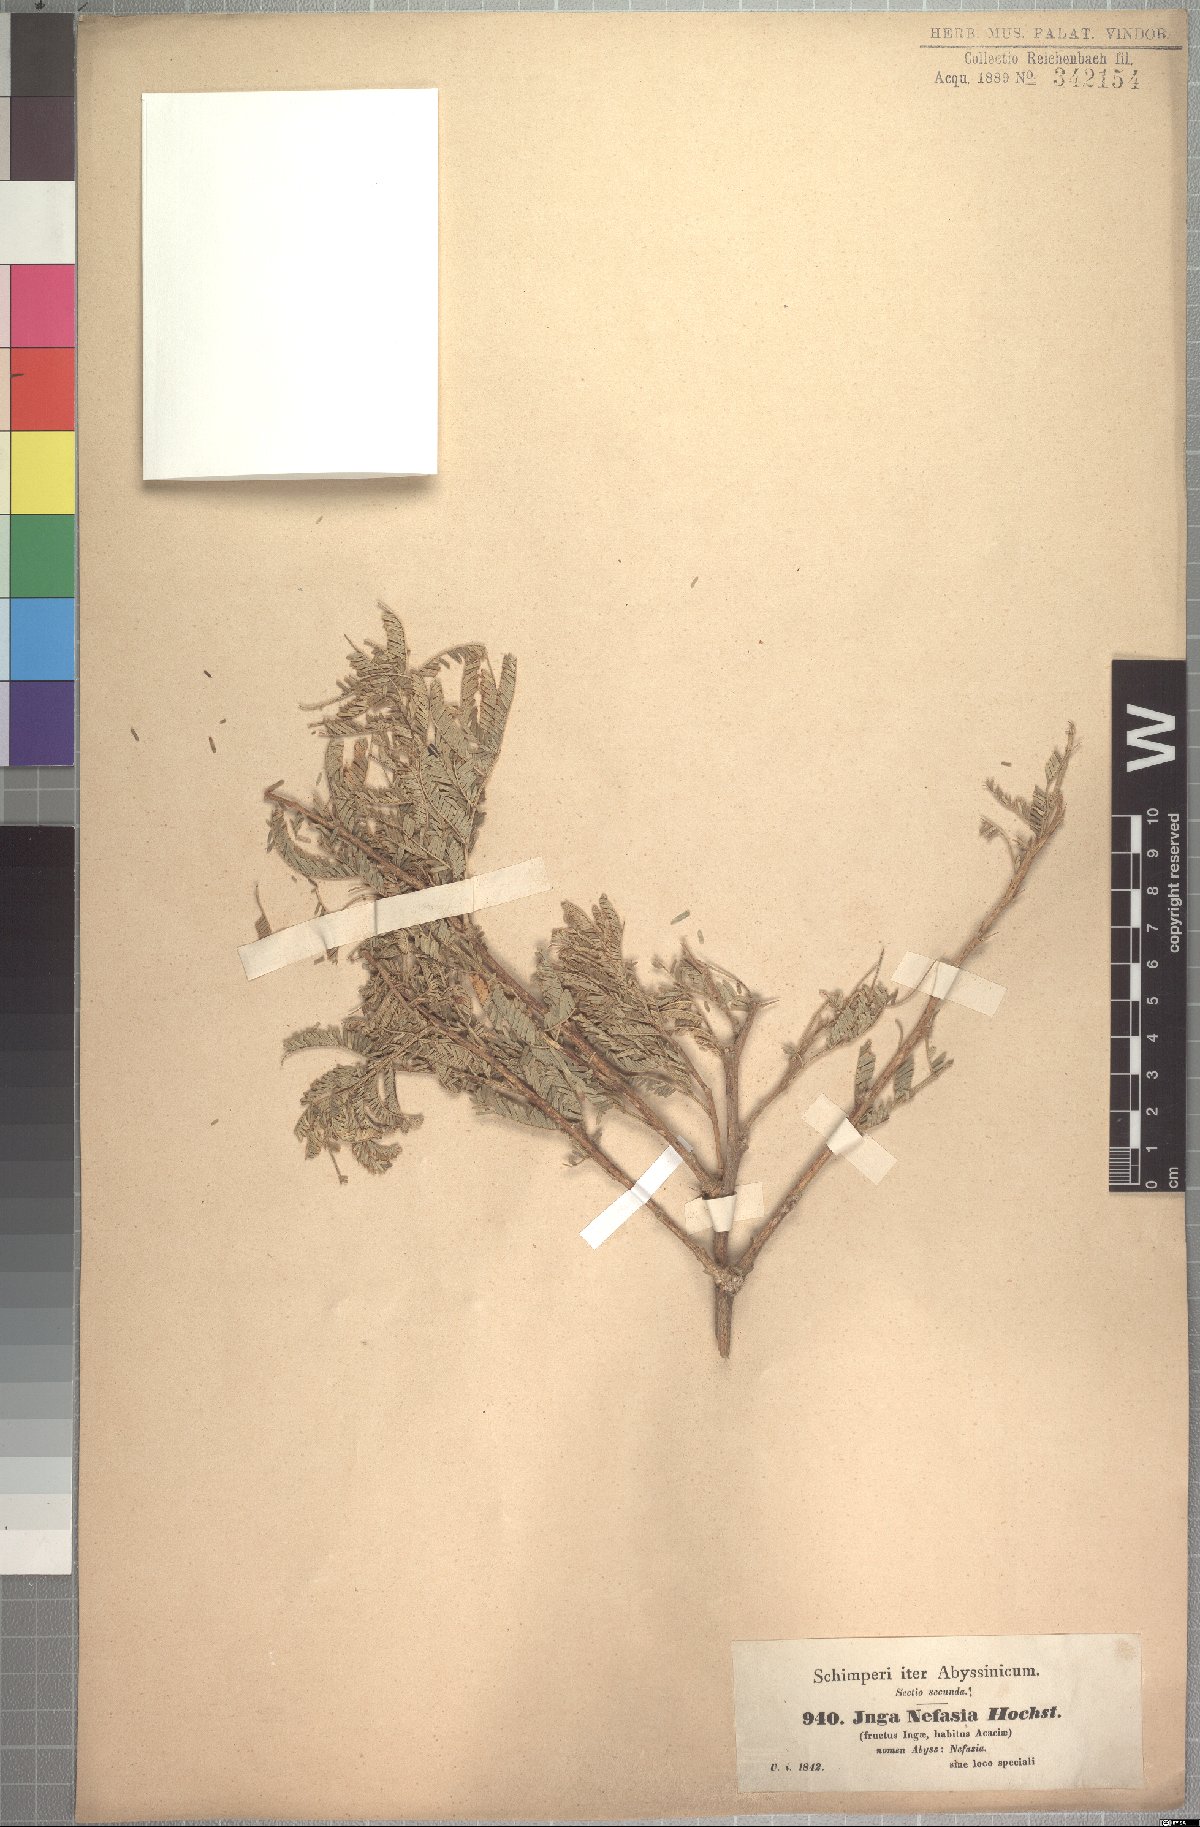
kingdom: Plantae
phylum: Tracheophyta
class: Magnoliopsida
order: Fabales
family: Fabaceae
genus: Vachellia
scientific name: Vachellia sieberiana
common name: Flat-topped thorn
